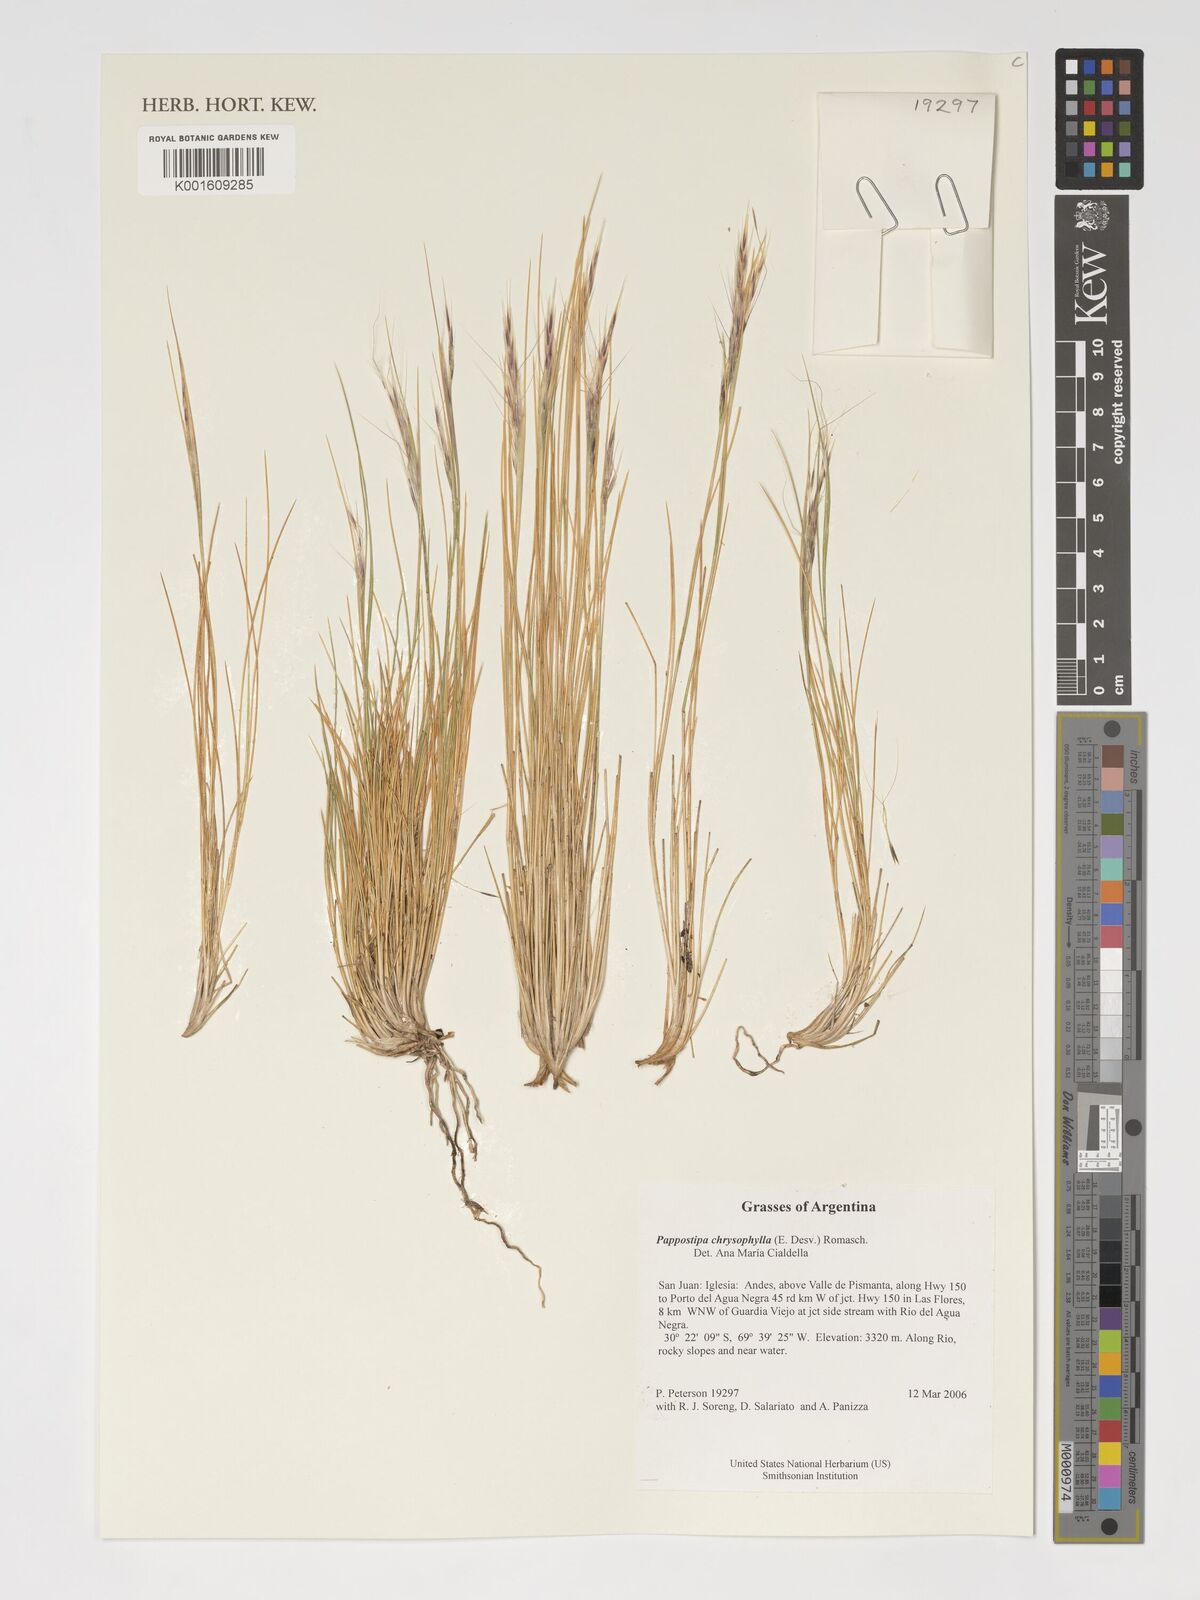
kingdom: Plantae
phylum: Tracheophyta
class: Liliopsida
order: Poales
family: Poaceae
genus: Pappostipa
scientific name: Pappostipa chrysophylla
